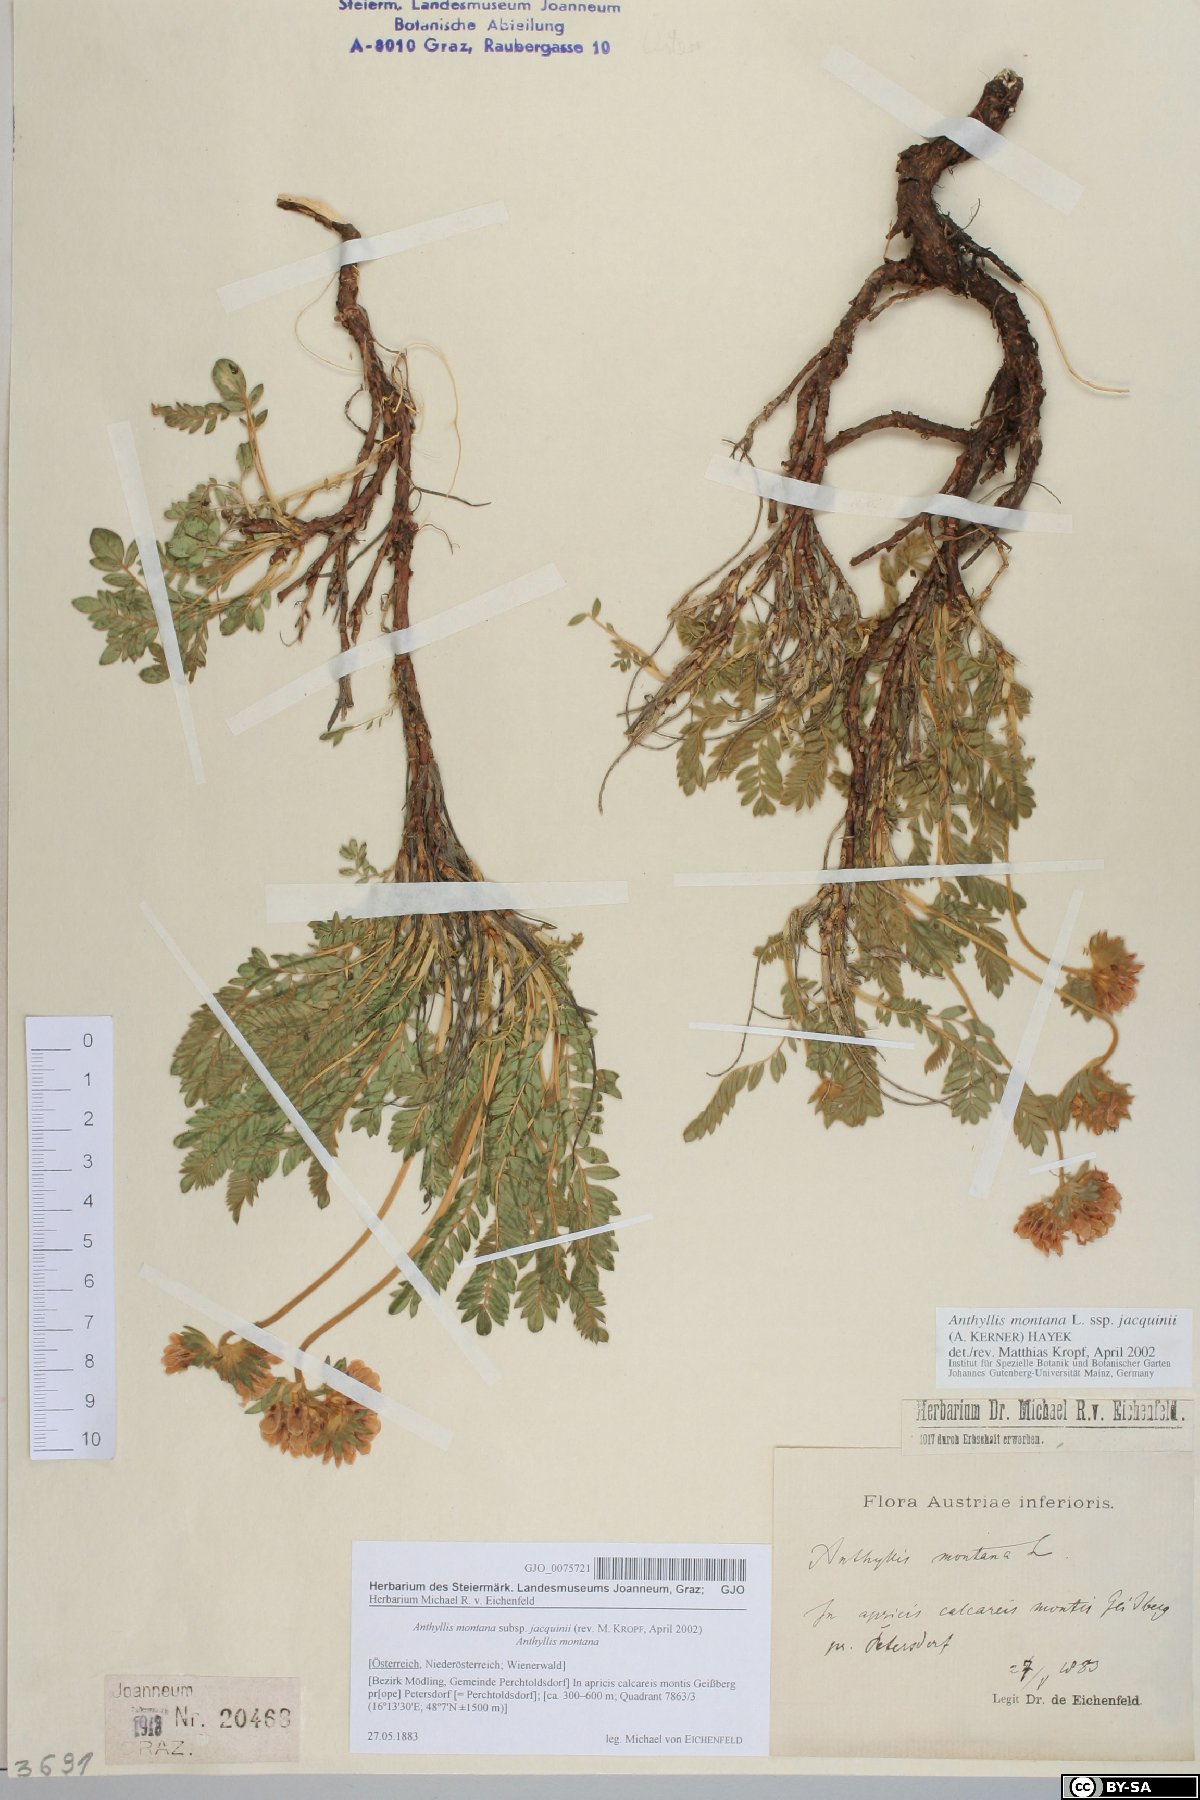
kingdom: Plantae
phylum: Tracheophyta
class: Magnoliopsida
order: Fabales
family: Fabaceae
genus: Anthyllis
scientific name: Anthyllis montana
